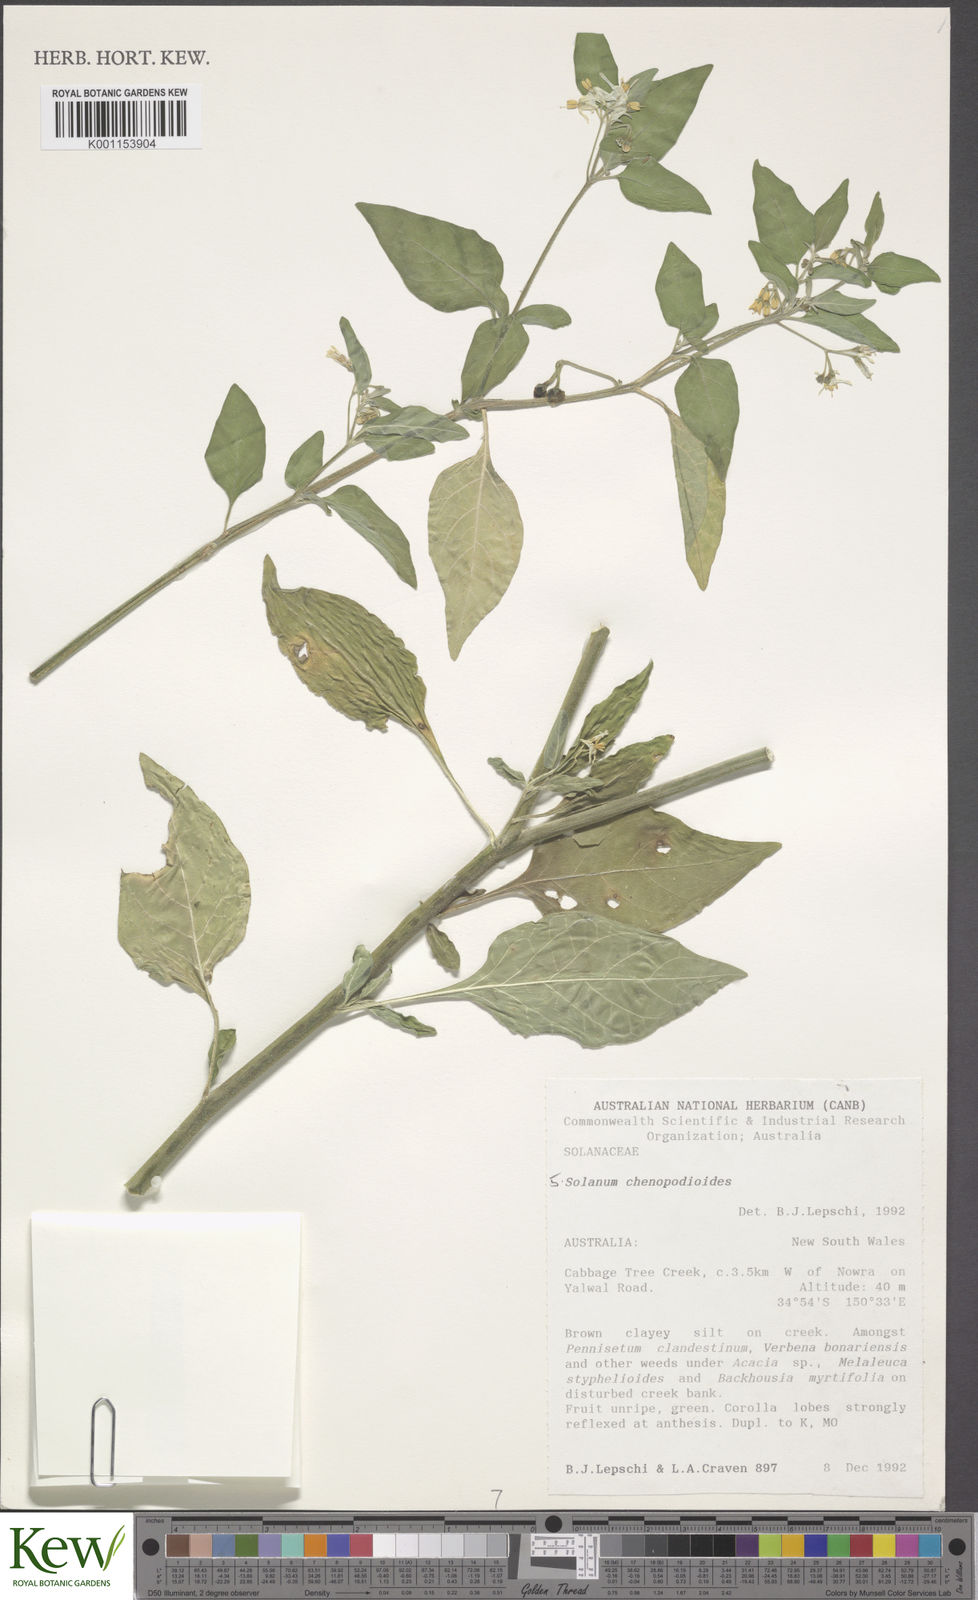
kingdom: Plantae
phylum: Tracheophyta
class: Magnoliopsida
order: Solanales
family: Solanaceae
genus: Solanum
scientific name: Solanum chenopodioides
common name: Tall nightshade
